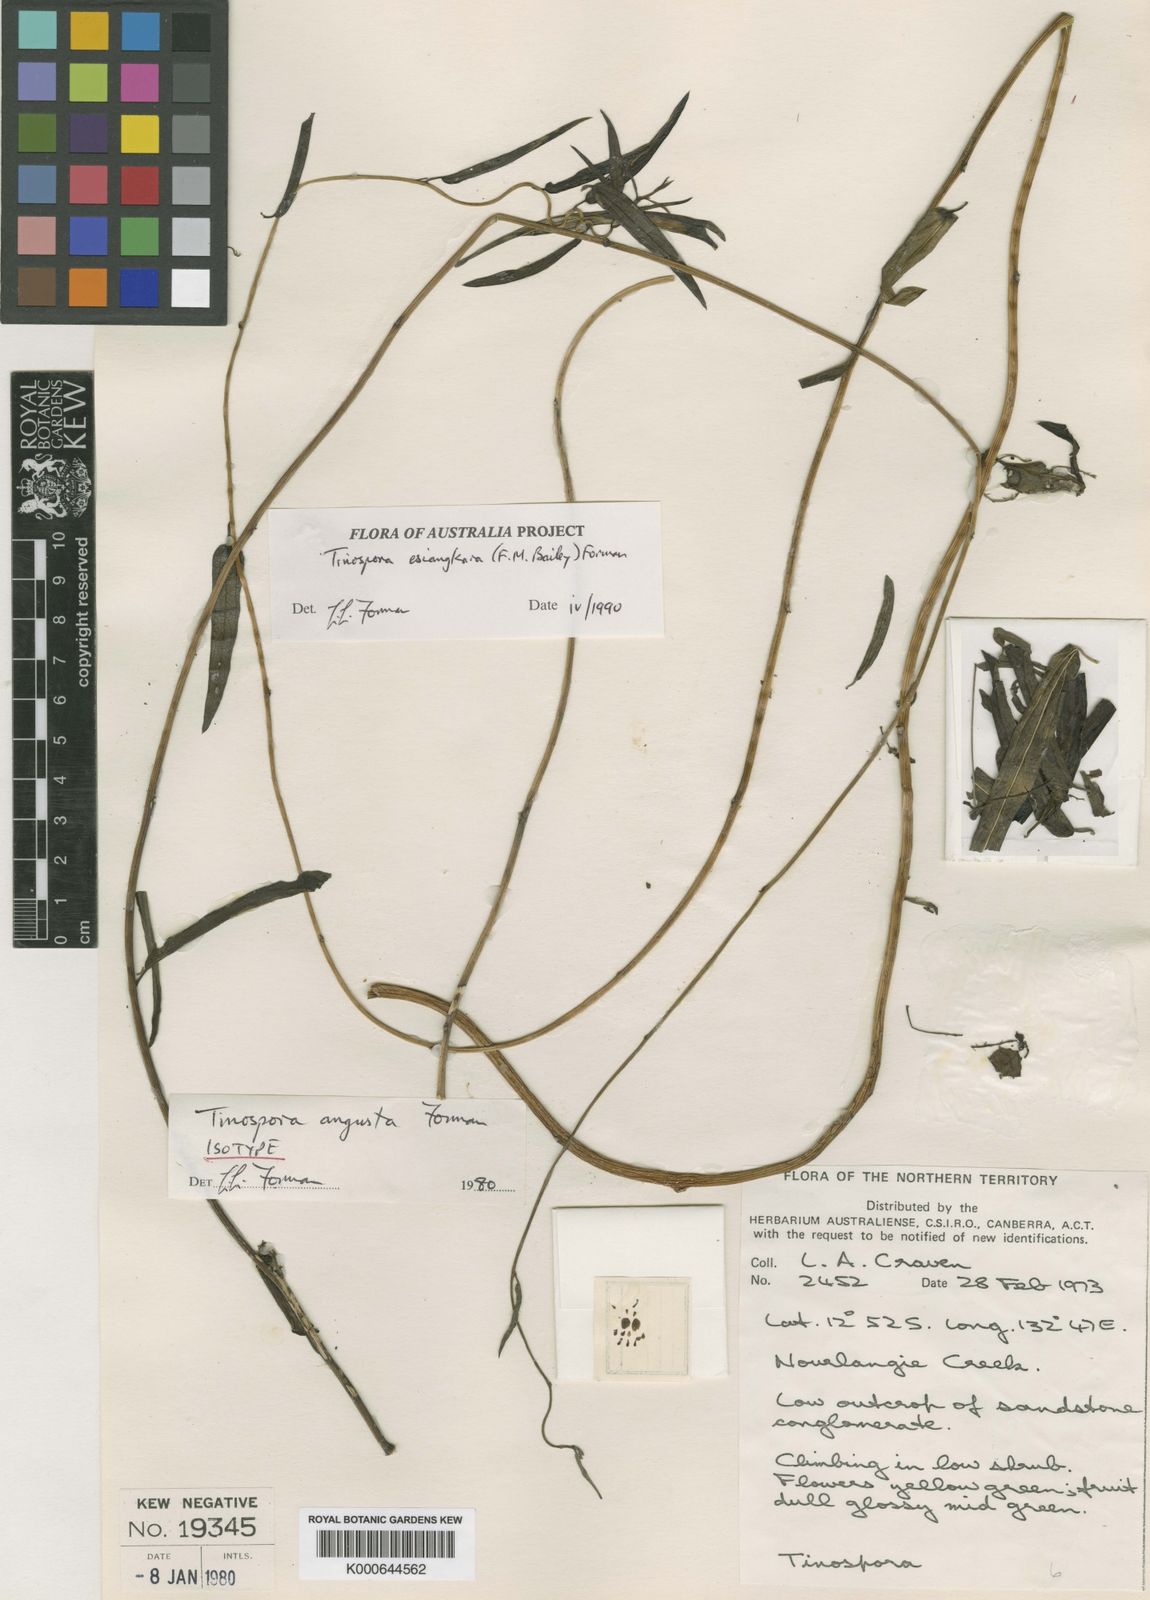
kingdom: Plantae
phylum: Tracheophyta
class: Magnoliopsida
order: Ranunculales
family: Menispermaceae
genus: Tinospora
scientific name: Tinospora esiangkara
